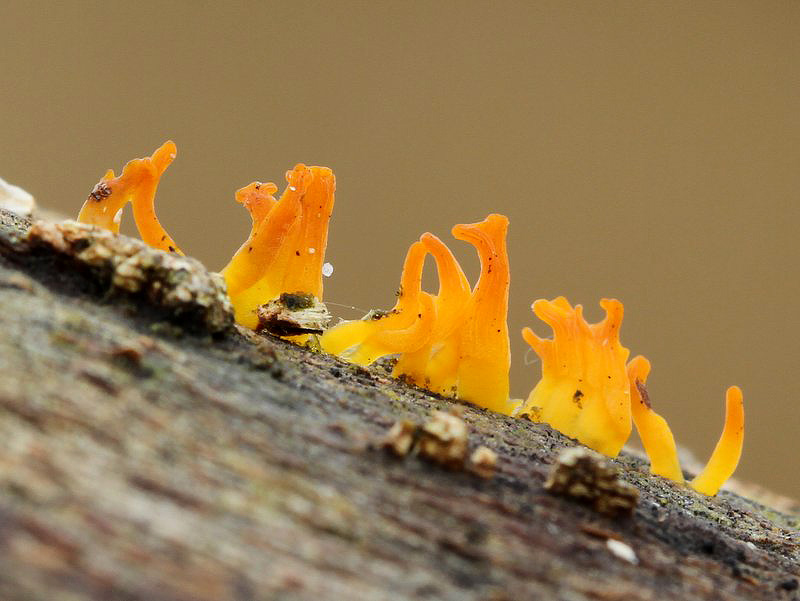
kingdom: Fungi
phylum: Basidiomycota
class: Dacrymycetes
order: Dacrymycetales
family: Dacrymycetaceae
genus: Calocera
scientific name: Calocera cornea
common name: liden guldgaffel
